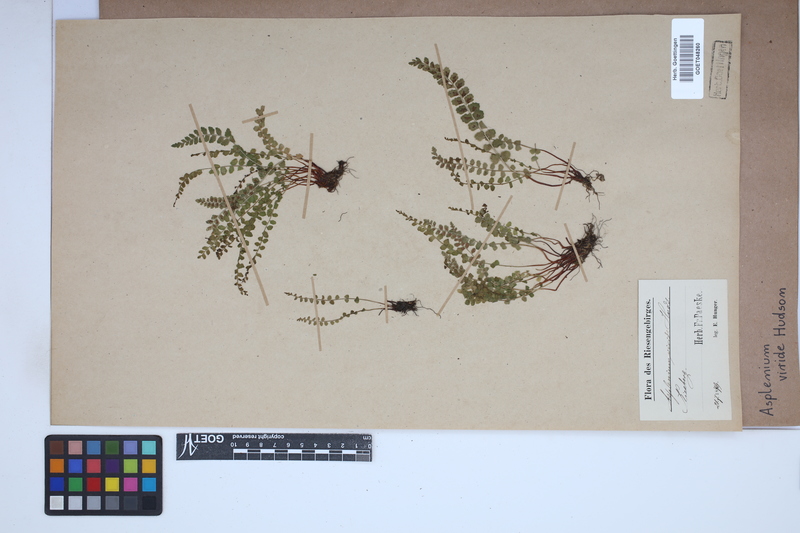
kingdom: Plantae
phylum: Tracheophyta
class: Polypodiopsida
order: Polypodiales
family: Aspleniaceae
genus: Asplenium
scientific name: Asplenium viride
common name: Green spleenwort
